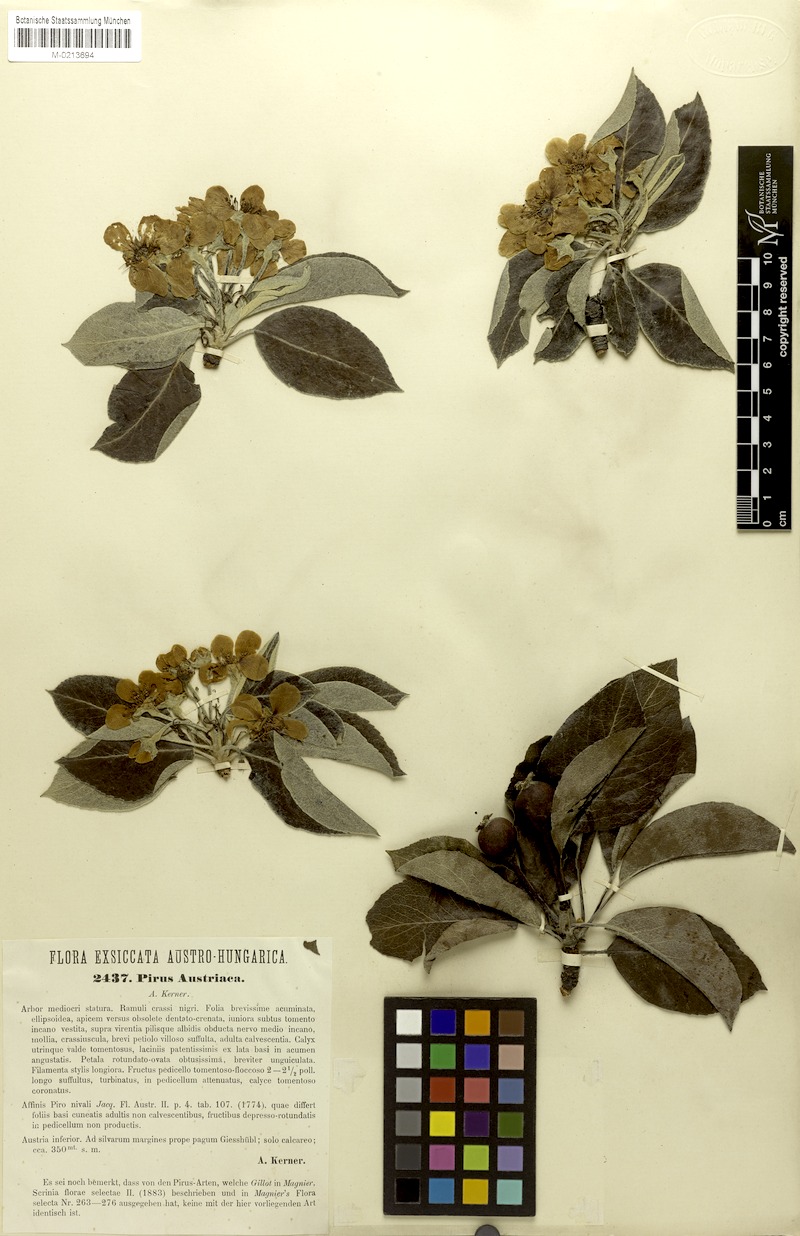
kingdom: Plantae
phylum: Tracheophyta
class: Magnoliopsida
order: Rosales
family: Rosaceae
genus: Pyrus
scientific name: Pyrus nivalis
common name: Snow pear
